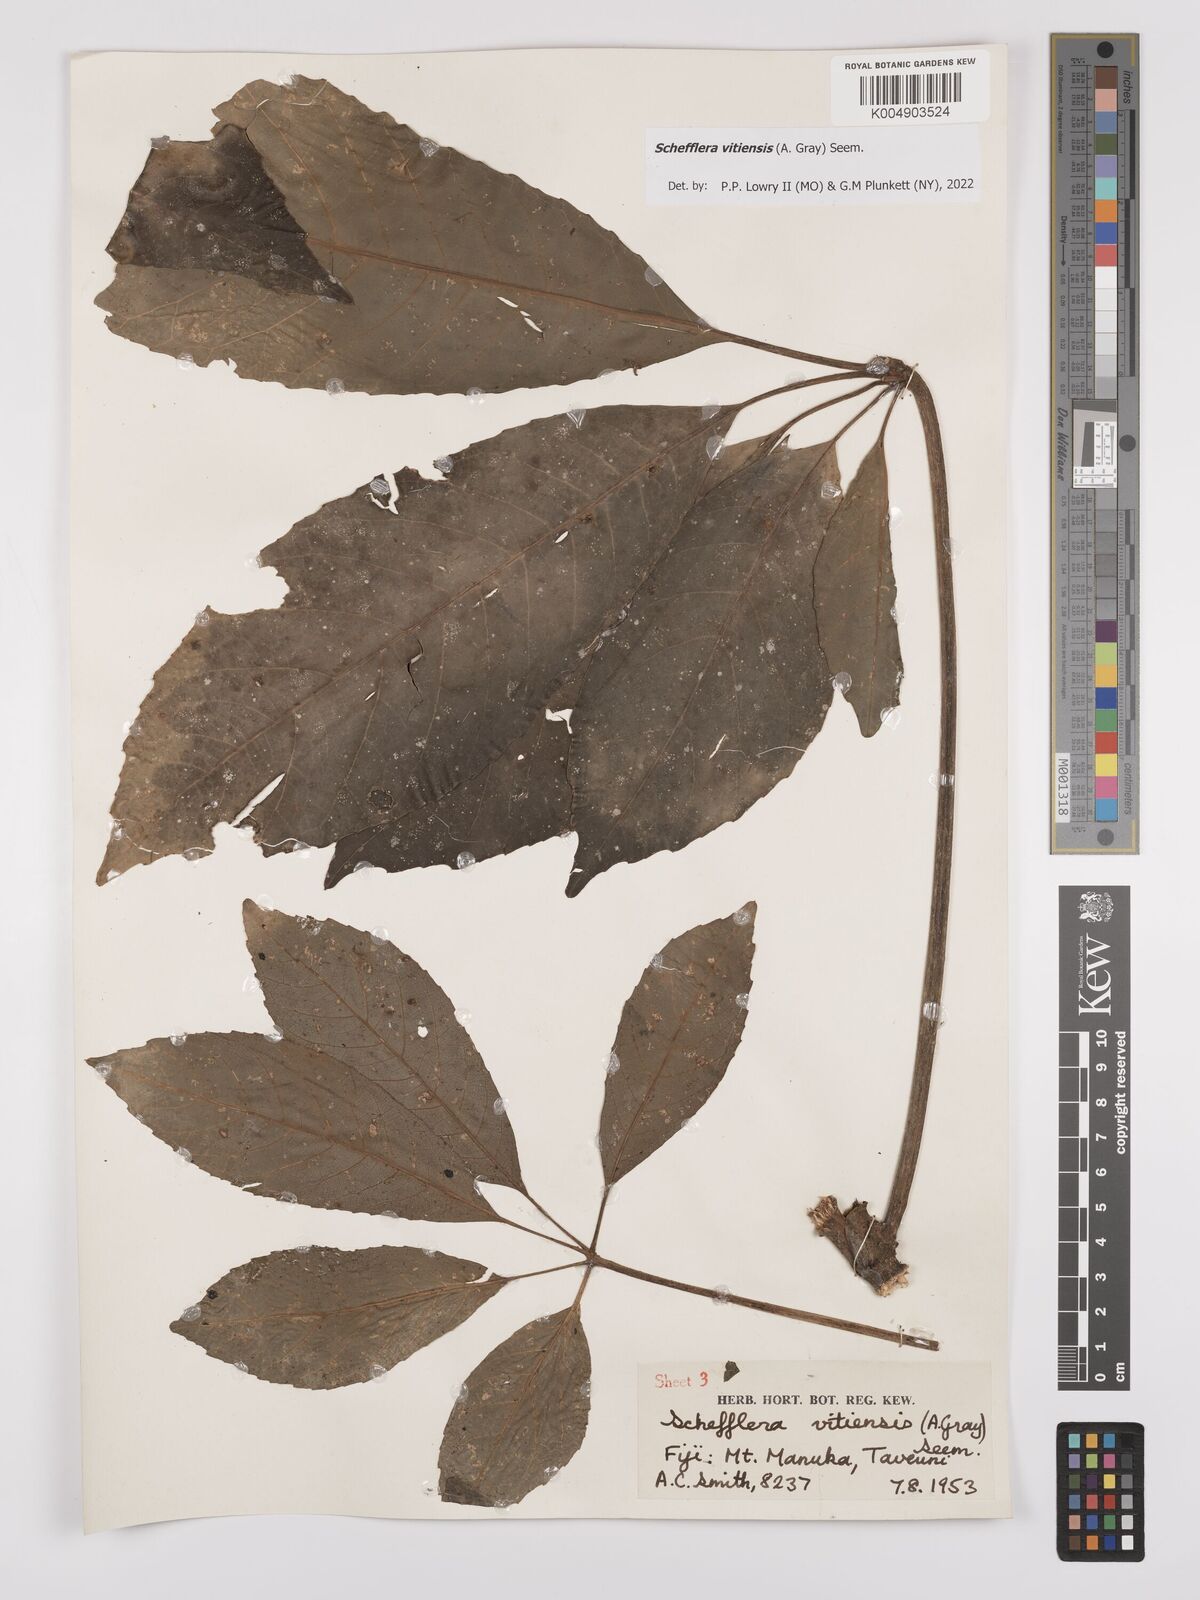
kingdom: Plantae
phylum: Tracheophyta
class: Magnoliopsida
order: Apiales
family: Araliaceae
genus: Schefflera
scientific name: Schefflera vitiensis
